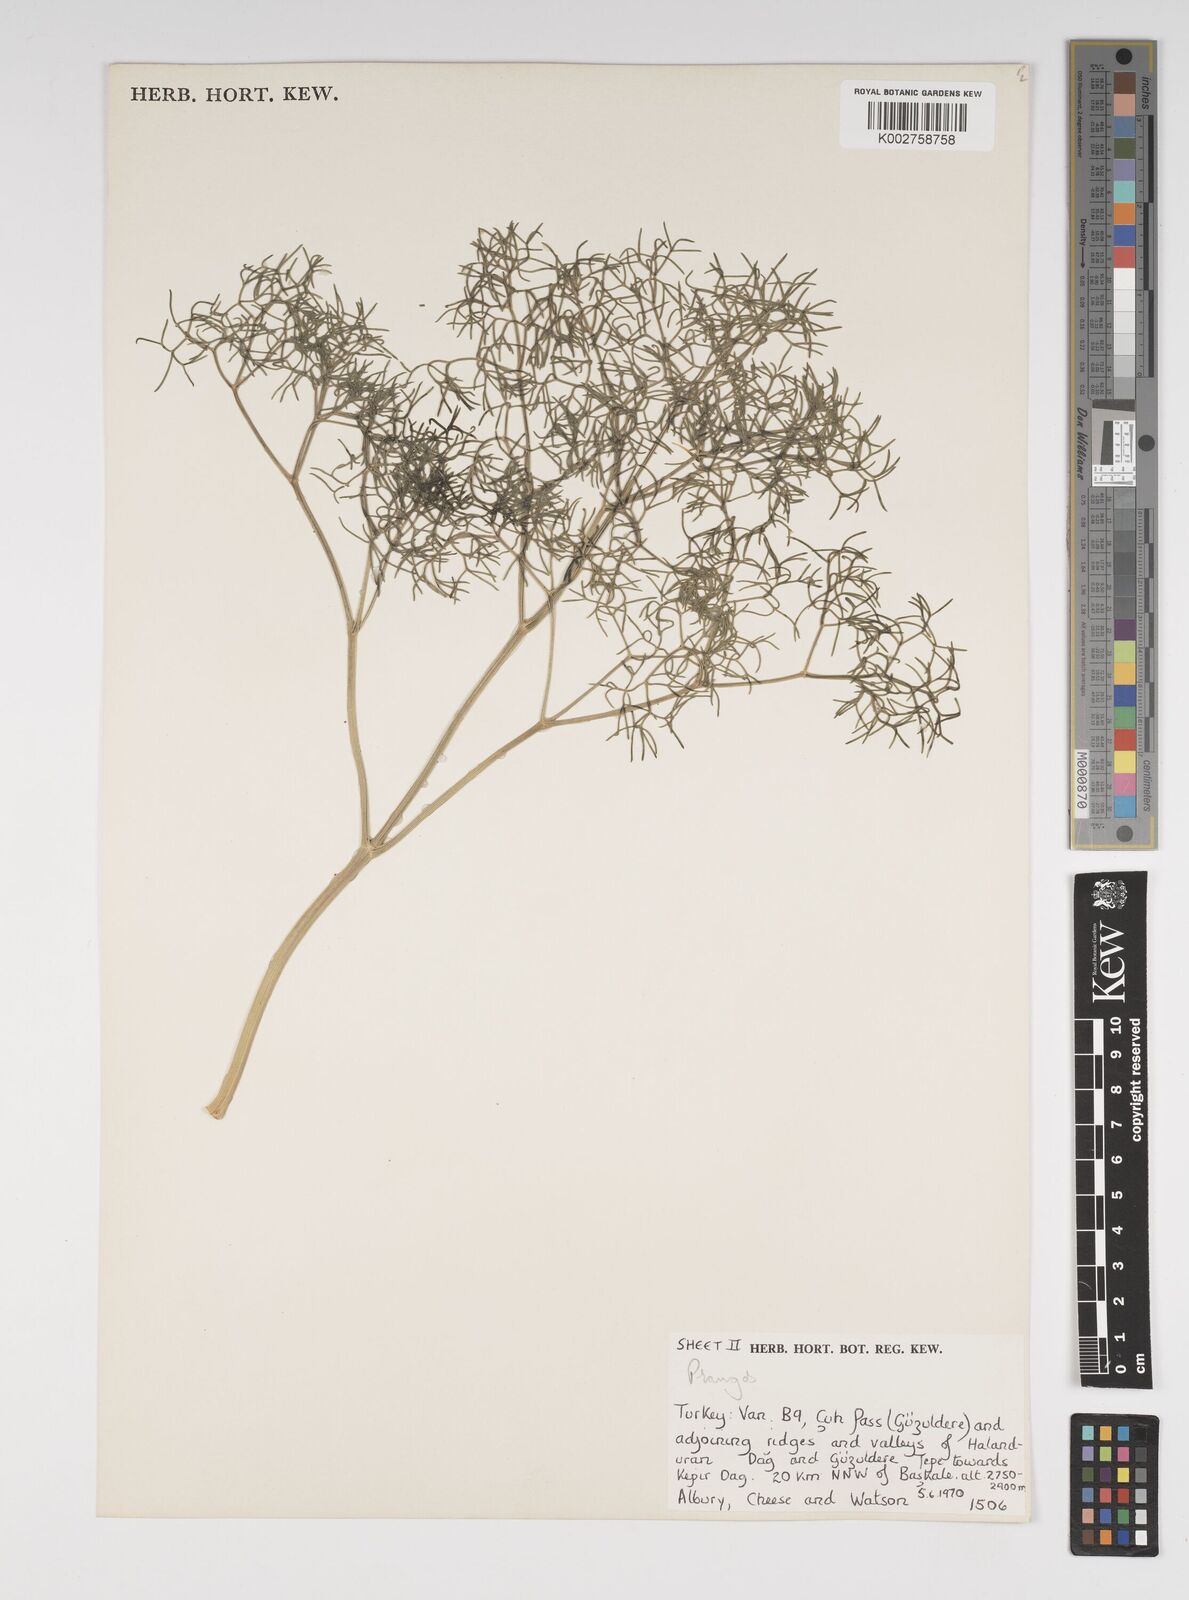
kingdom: Plantae
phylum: Tracheophyta
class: Magnoliopsida
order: Apiales
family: Apiaceae
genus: Cachrys
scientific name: Cachrys
